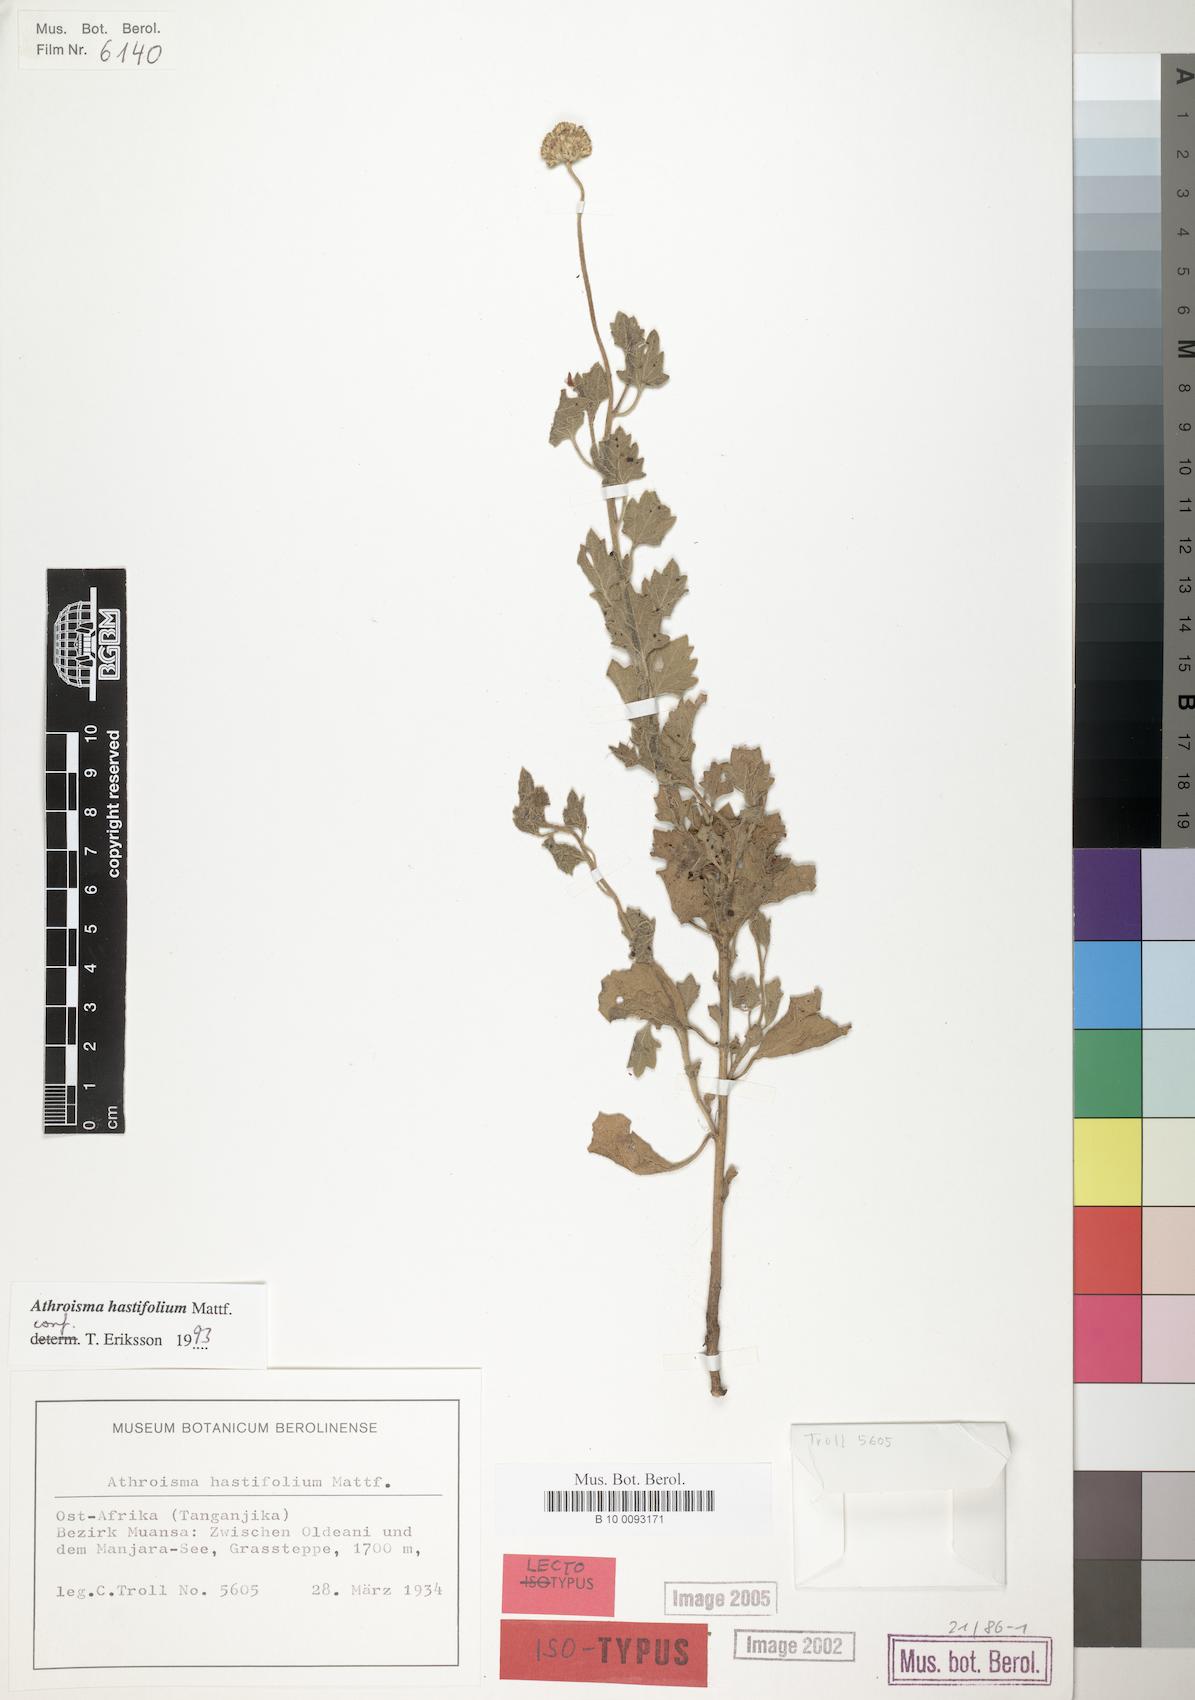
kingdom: Plantae
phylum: Tracheophyta
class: Magnoliopsida
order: Asterales
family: Asteraceae
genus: Athroisma
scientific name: Athroisma hastifolium
